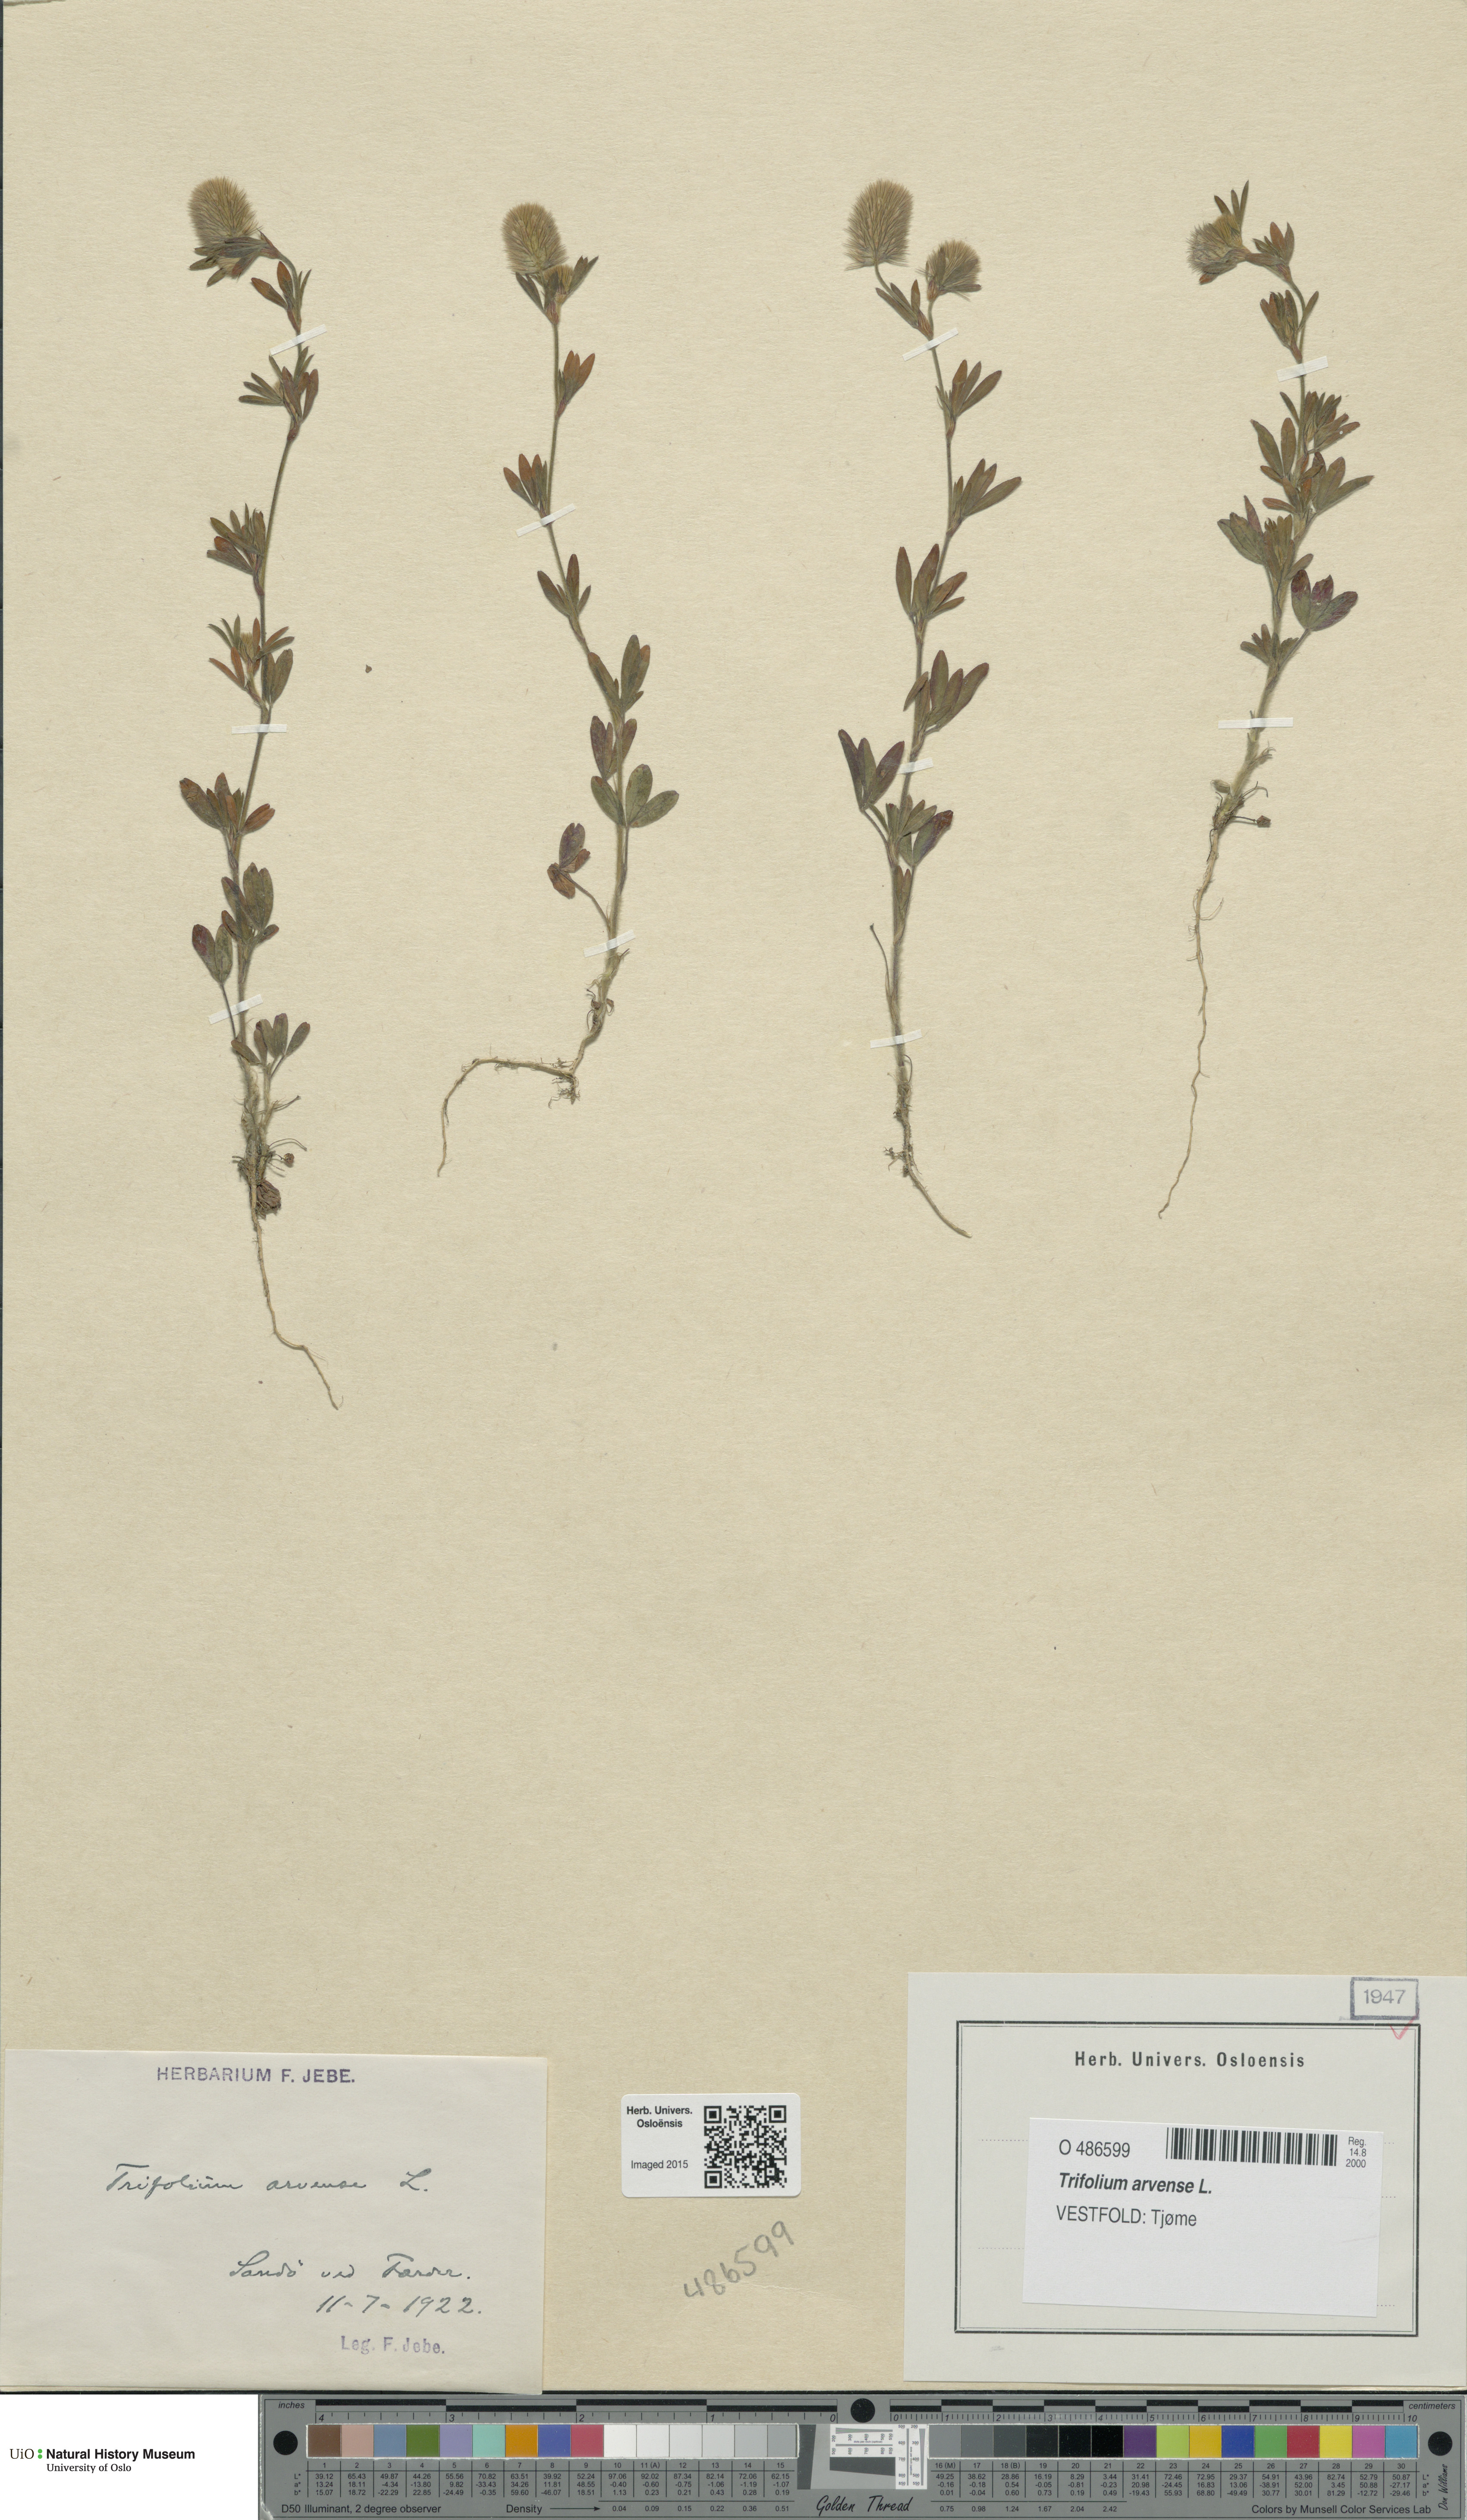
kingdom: Plantae
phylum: Tracheophyta
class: Magnoliopsida
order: Fabales
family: Fabaceae
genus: Trifolium
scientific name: Trifolium arvense
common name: Hare's-foot clover
